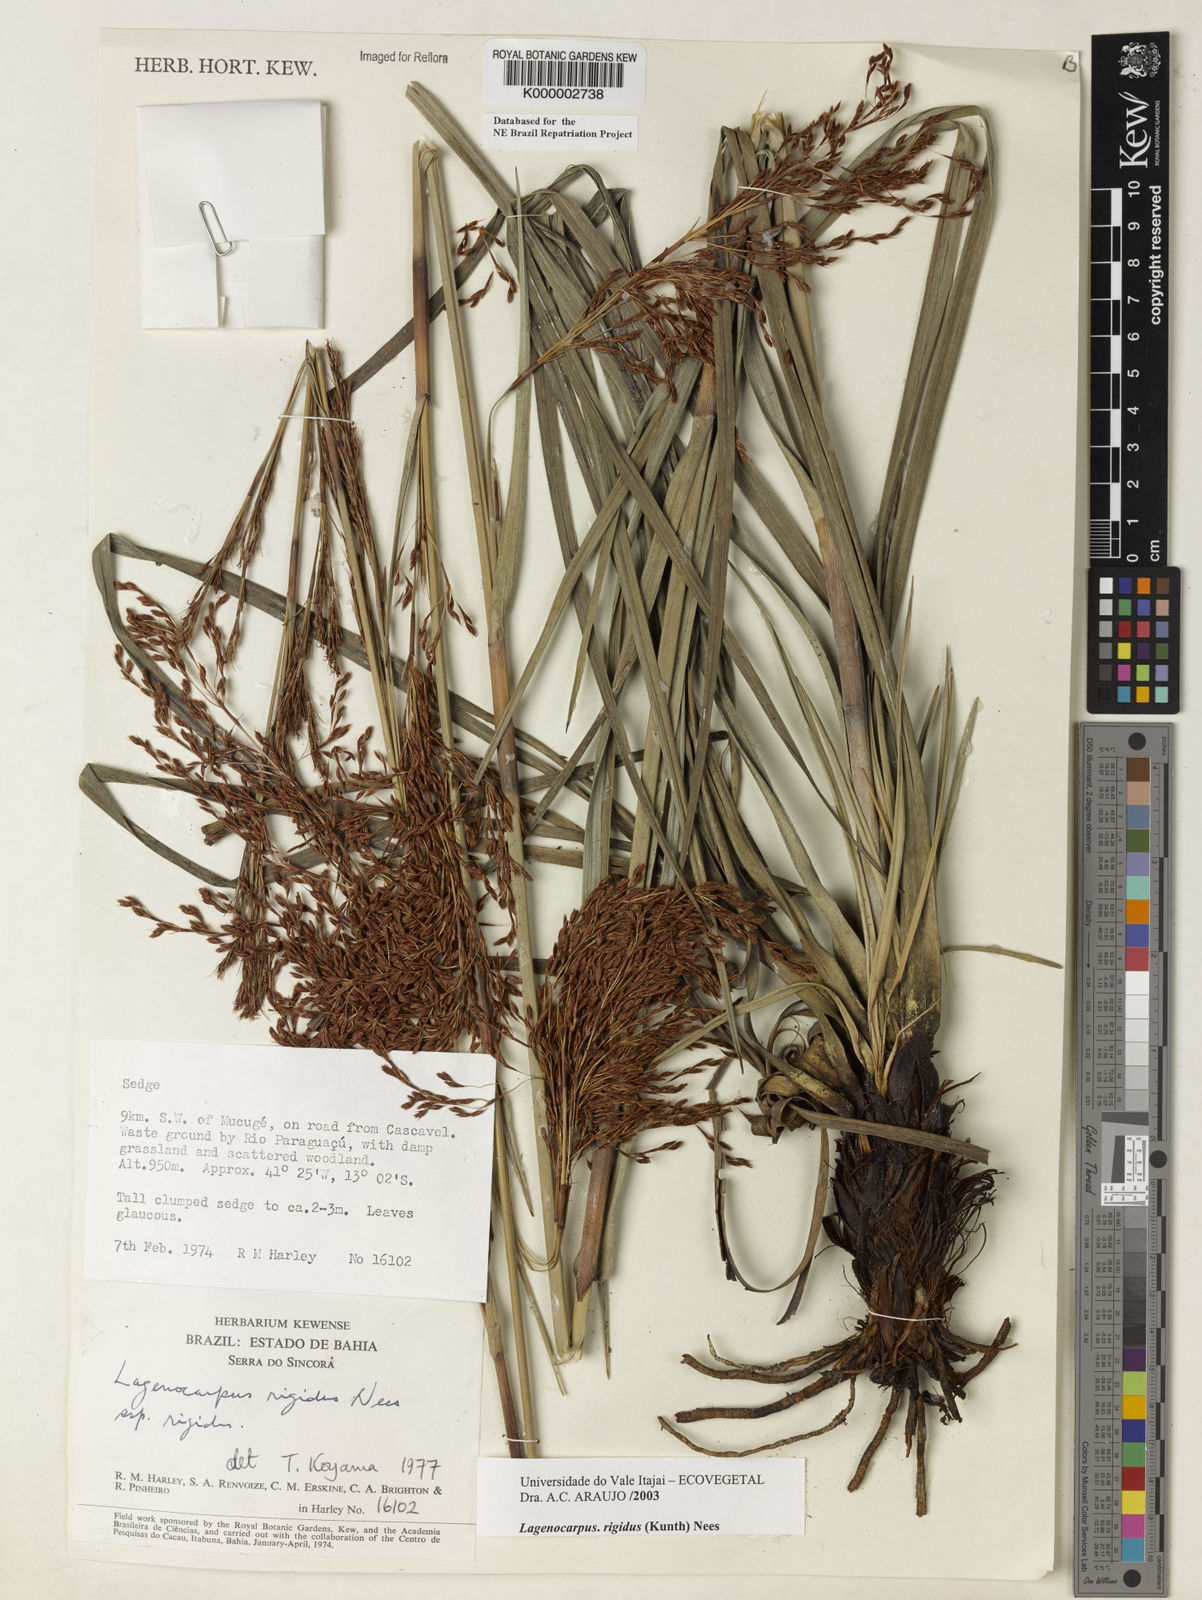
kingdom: Plantae
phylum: Tracheophyta
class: Liliopsida
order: Poales
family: Cyperaceae
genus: Lagenocarpus
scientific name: Lagenocarpus rigidus
